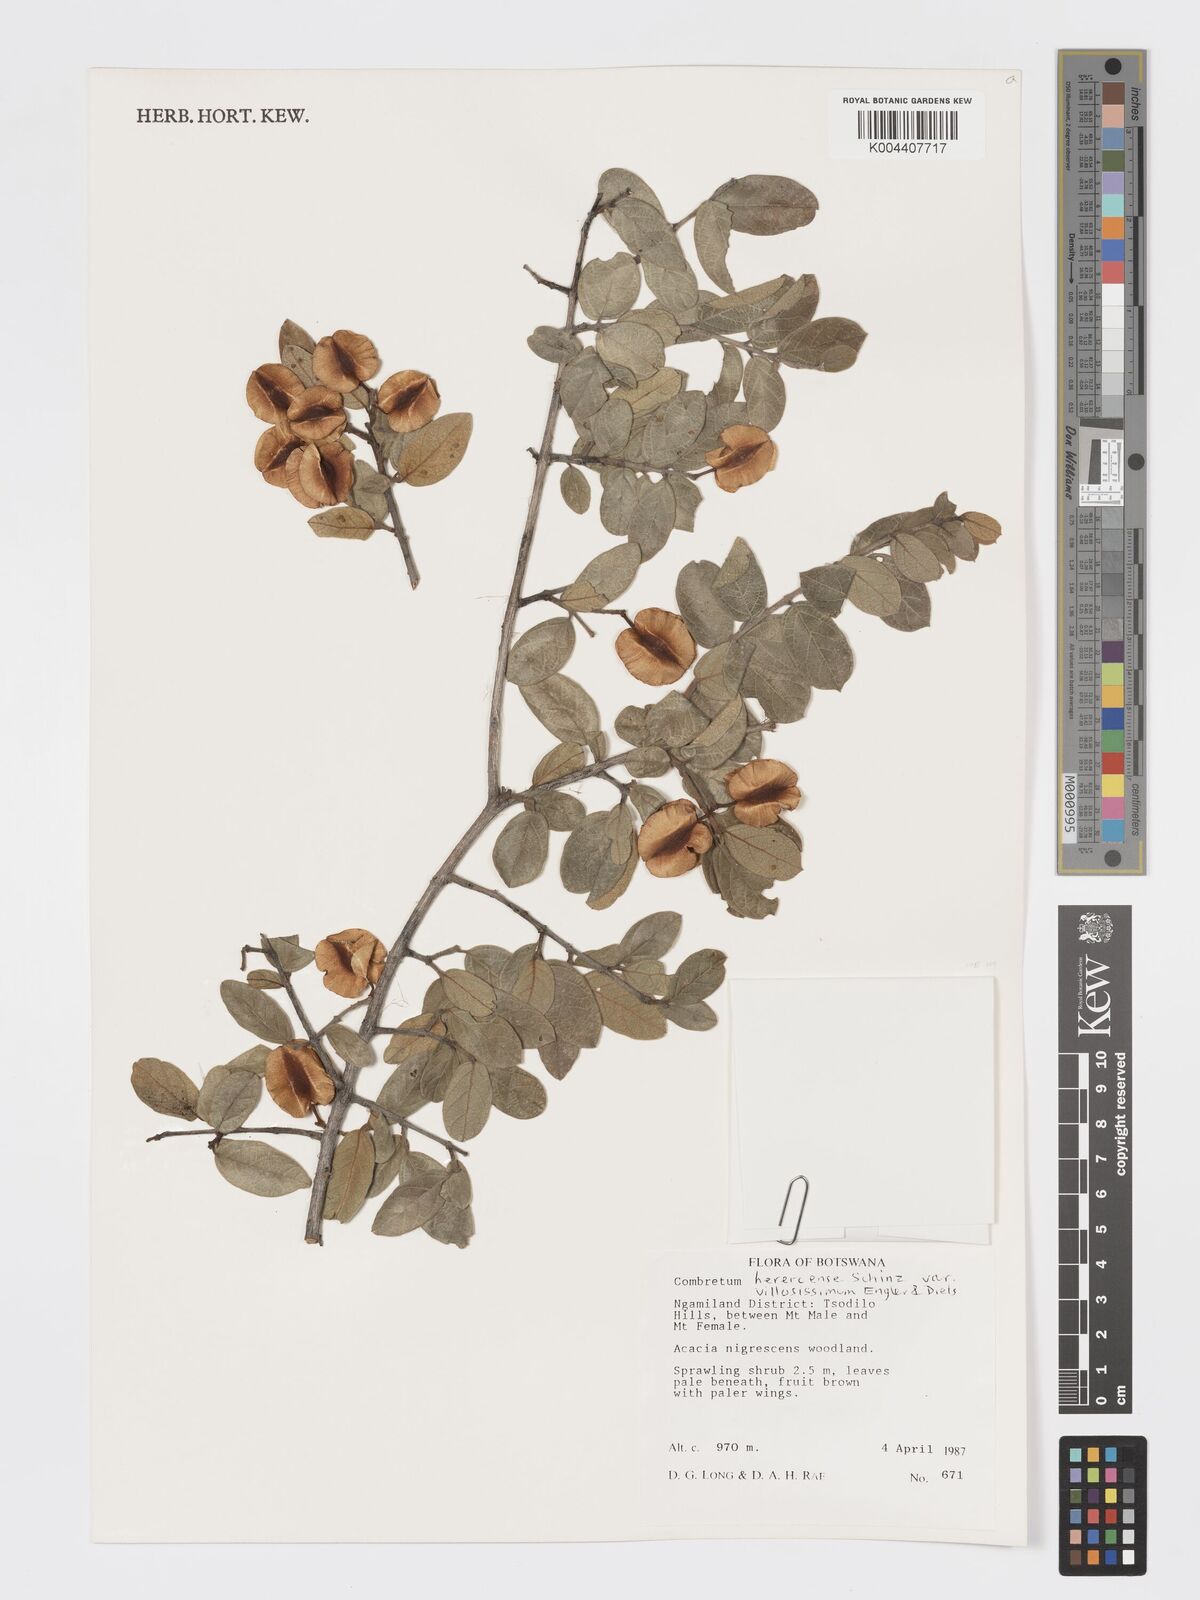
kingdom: Plantae
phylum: Tracheophyta
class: Magnoliopsida
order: Myrtales
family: Combretaceae
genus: Combretum
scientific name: Combretum hereroense
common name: Russet bushwillow
